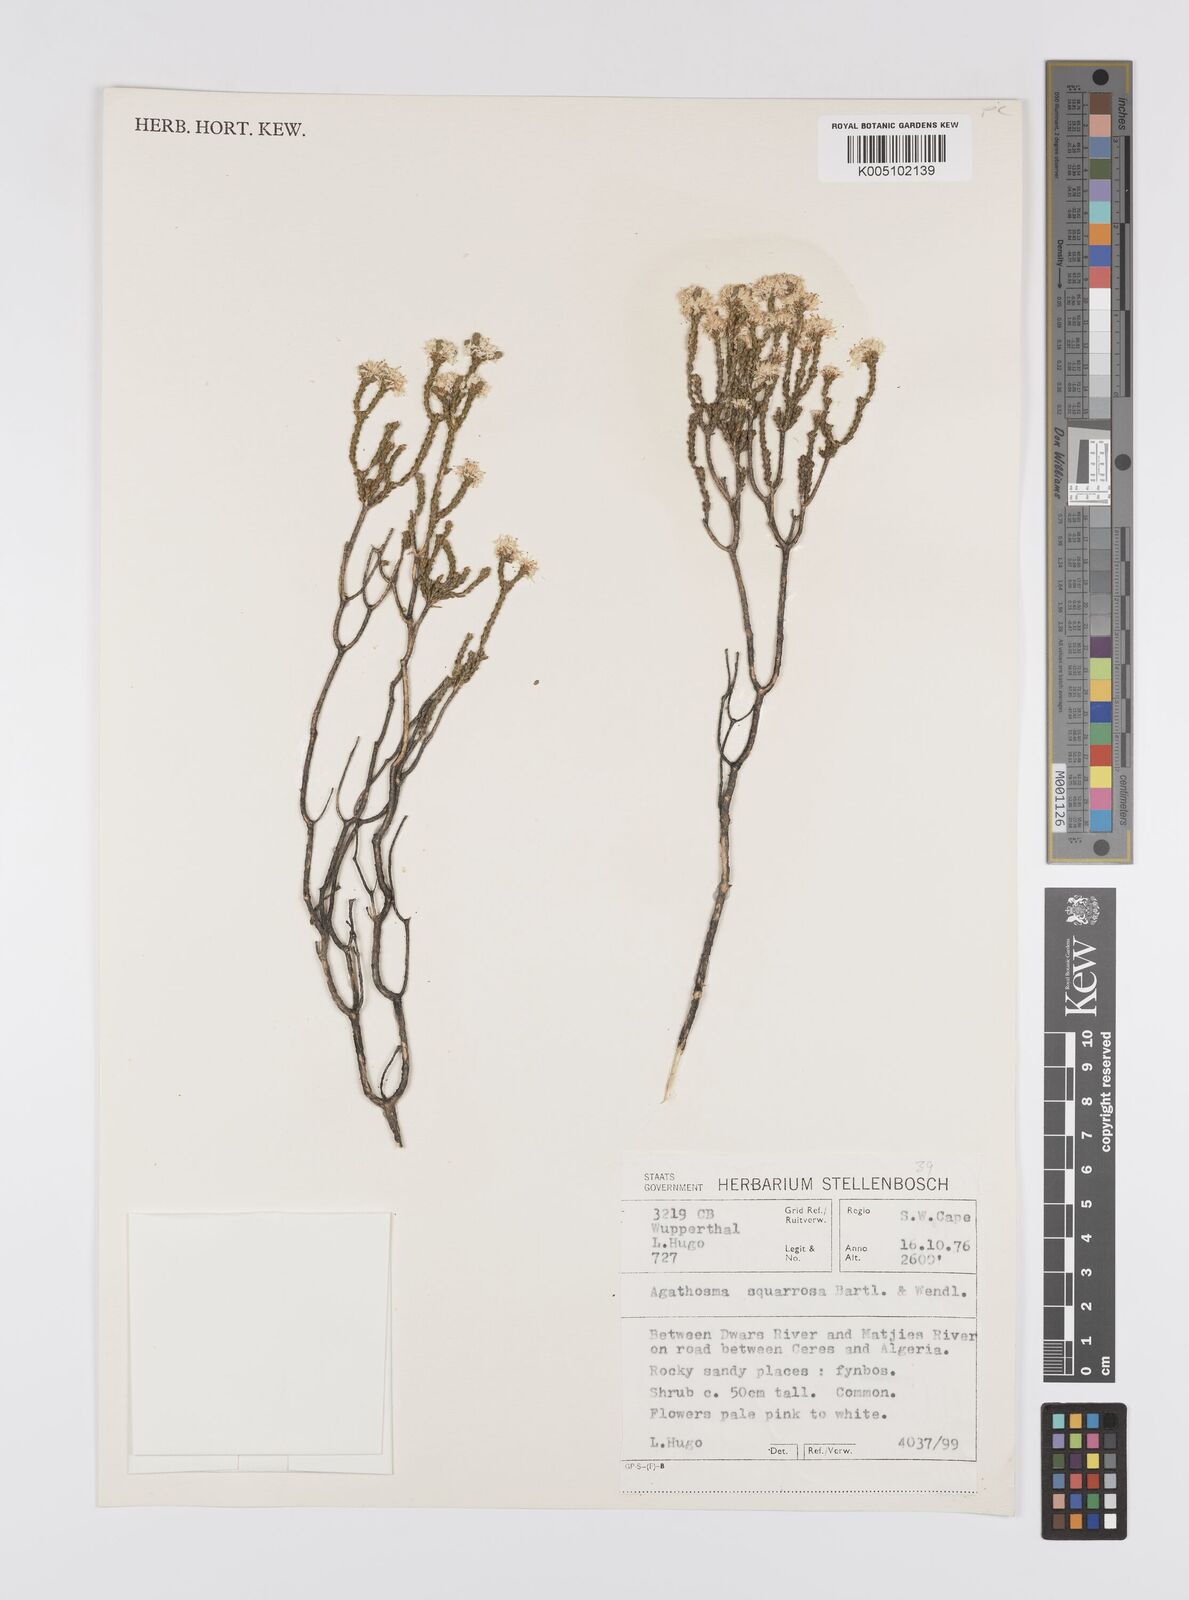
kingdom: Plantae
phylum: Tracheophyta
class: Magnoliopsida
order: Sapindales
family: Rutaceae
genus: Agathosma
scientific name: Agathosma squamosa
